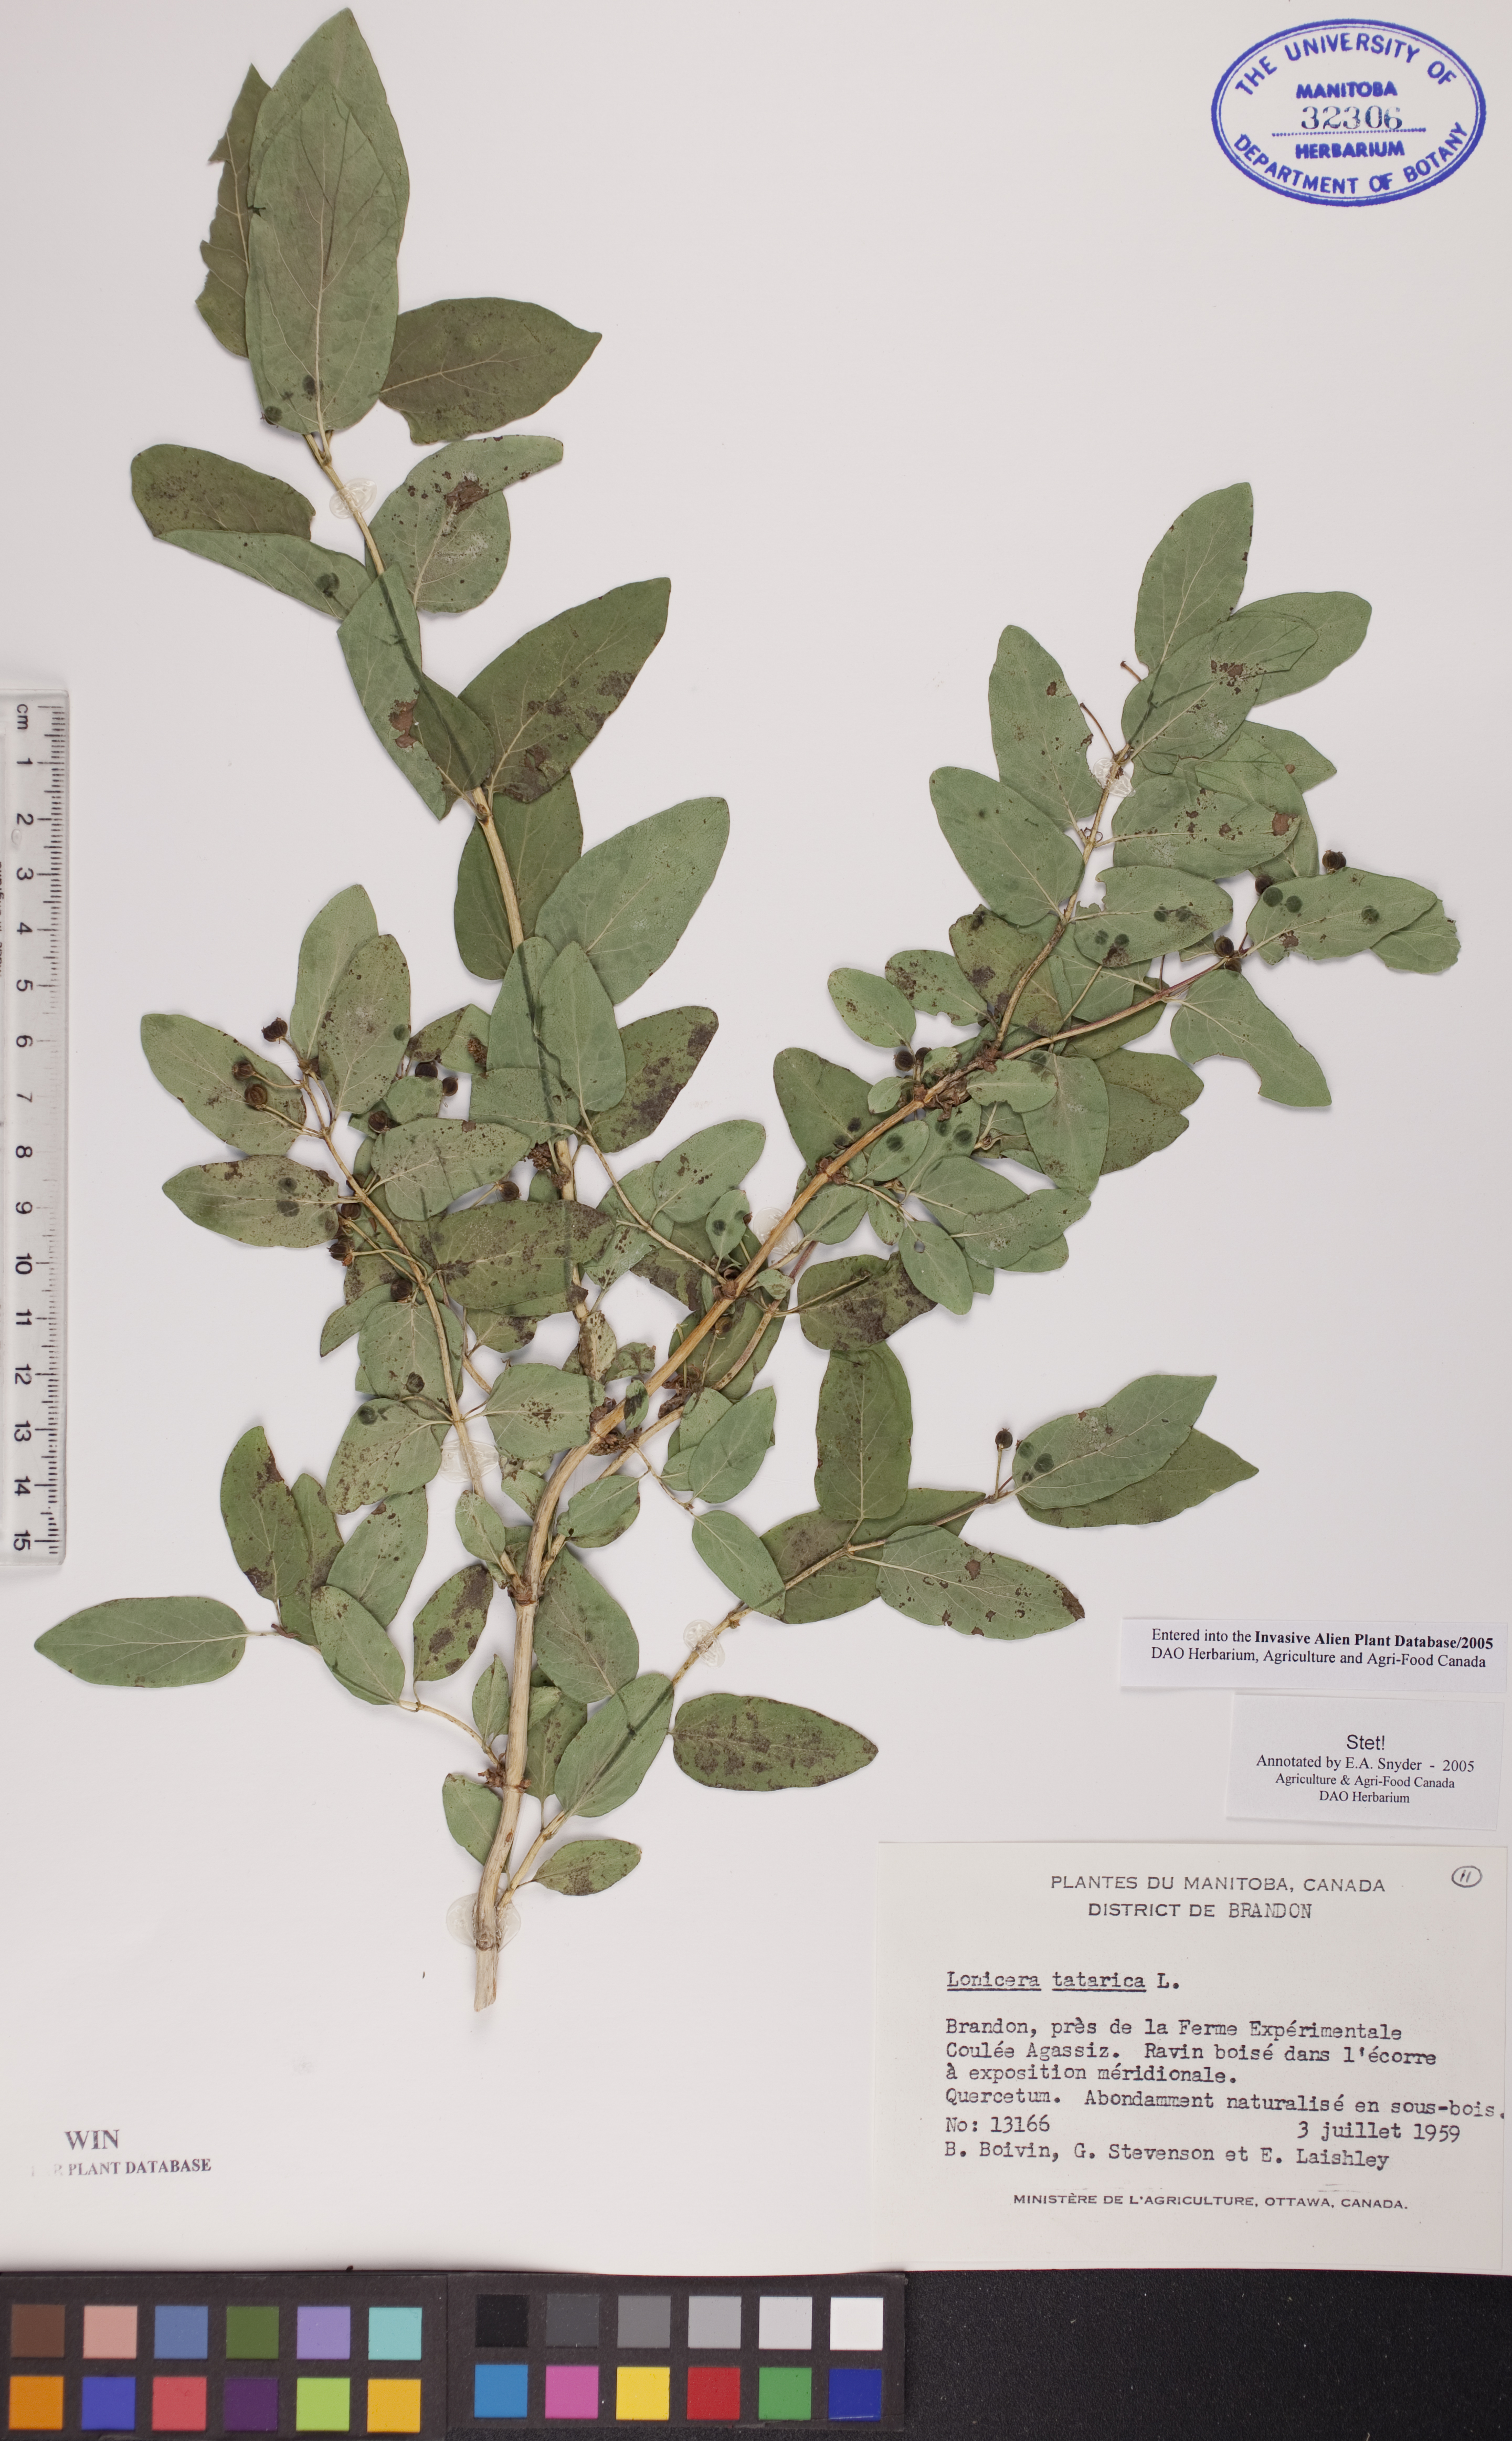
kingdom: Plantae
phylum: Tracheophyta
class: Magnoliopsida
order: Dipsacales
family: Caprifoliaceae
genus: Lonicera
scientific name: Lonicera tatarica
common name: Tatarian honeysuckle
